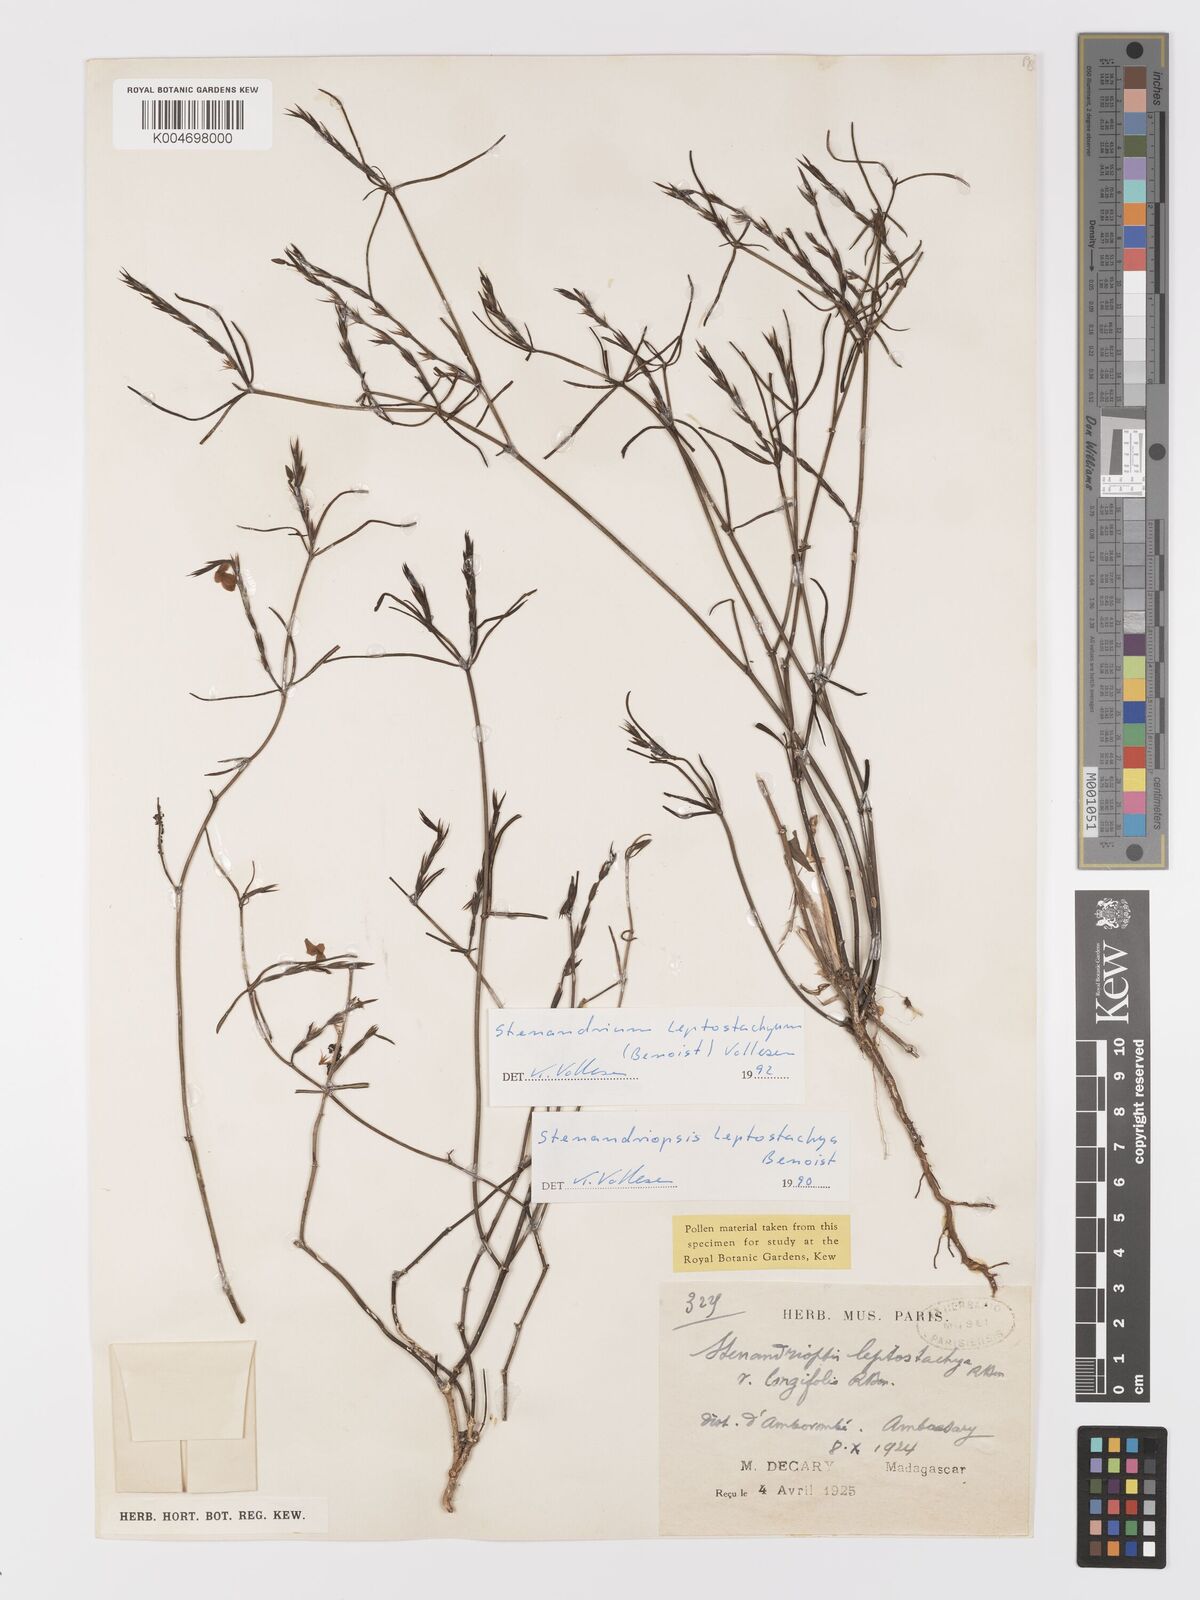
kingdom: Plantae
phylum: Tracheophyta
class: Magnoliopsida
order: Lamiales
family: Acanthaceae
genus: Stenandriopsis
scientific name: Stenandriopsis leptostachys
